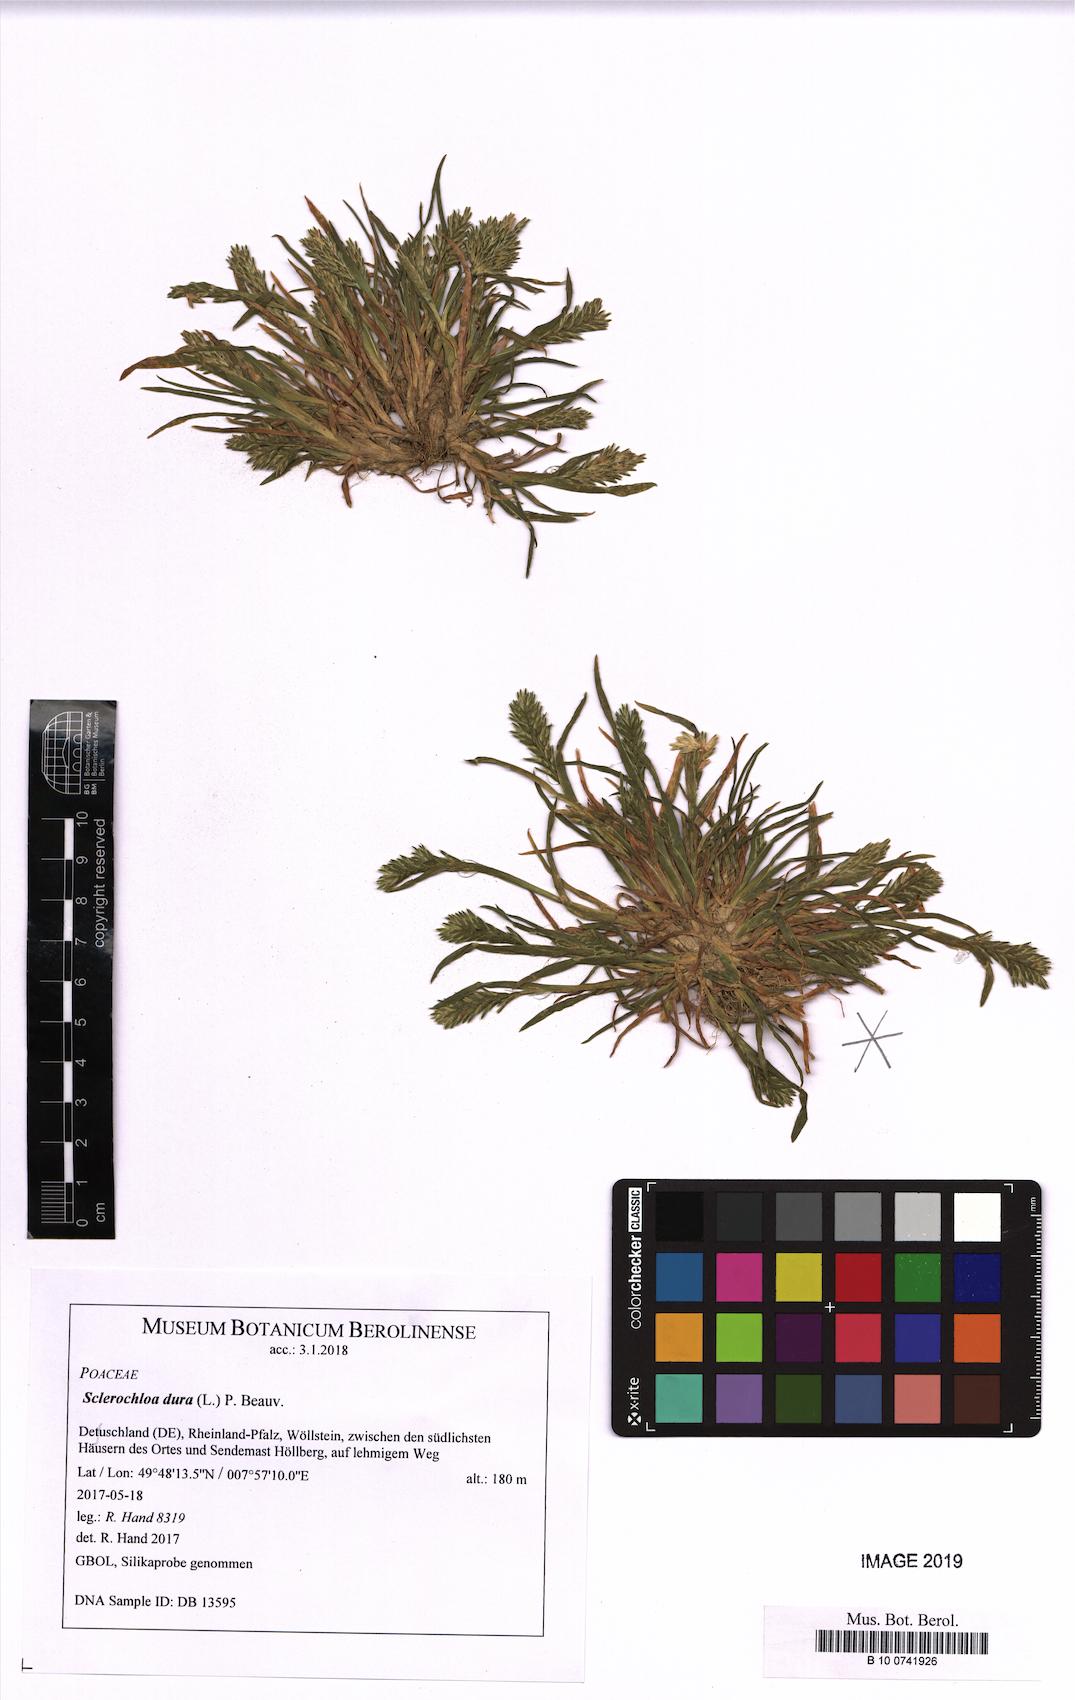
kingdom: Plantae
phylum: Tracheophyta
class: Liliopsida
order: Poales
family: Poaceae
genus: Sclerochloa
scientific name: Sclerochloa dura
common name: Common hardgrass
